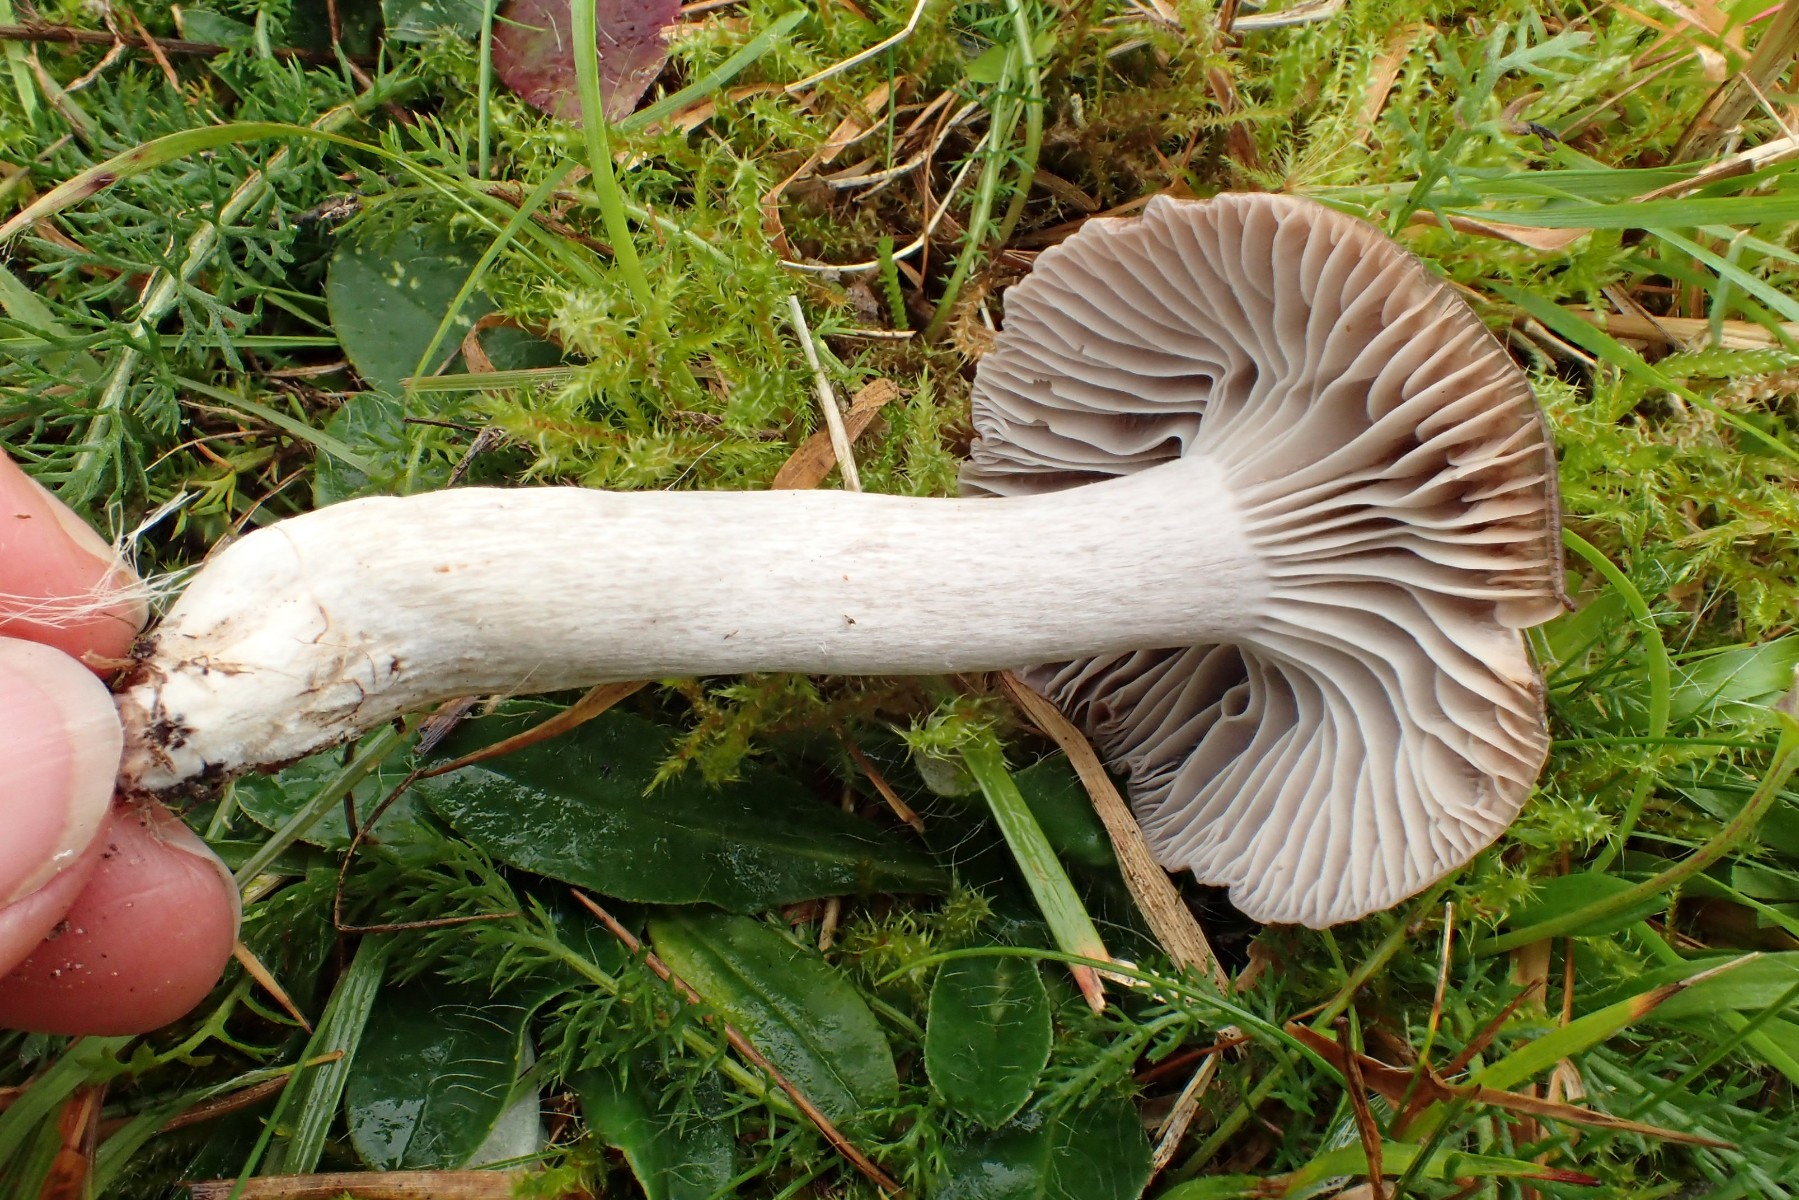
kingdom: Fungi
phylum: Basidiomycota
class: Agaricomycetes
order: Agaricales
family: Hygrophoraceae
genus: Cuphophyllus
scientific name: Cuphophyllus flavipes
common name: gulfodet vokshat
